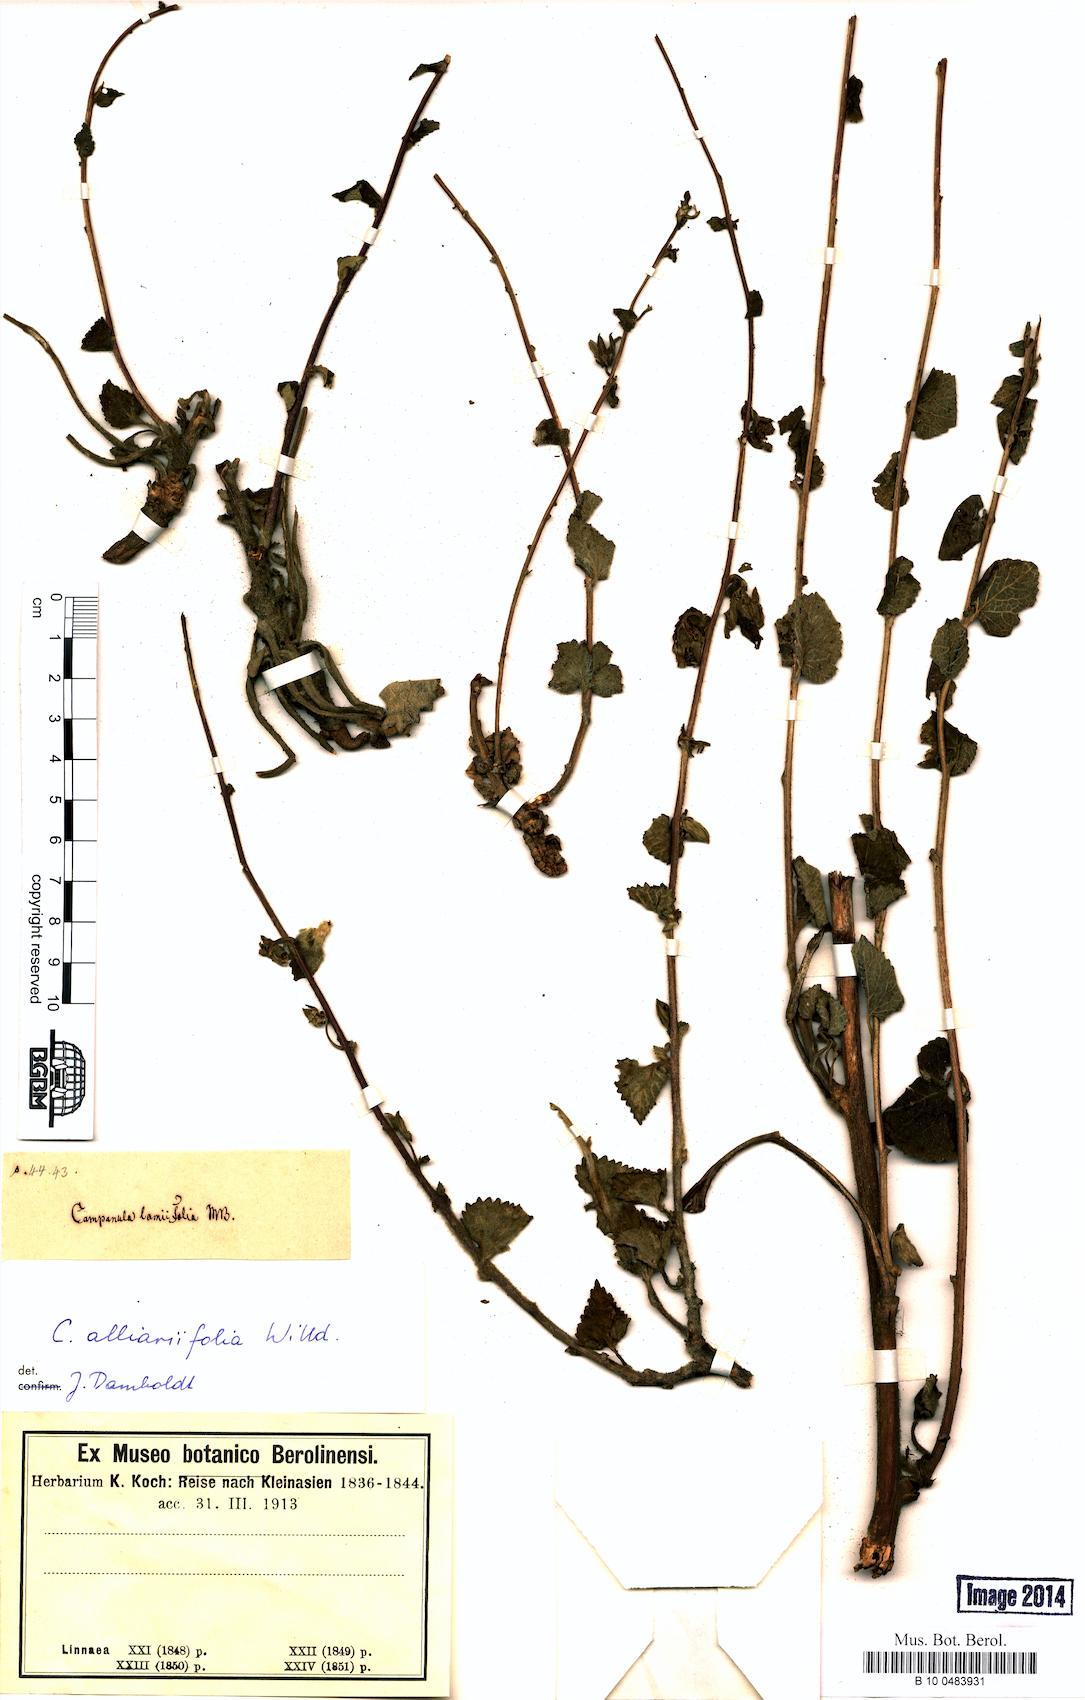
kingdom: Plantae
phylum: Tracheophyta
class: Magnoliopsida
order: Asterales
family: Campanulaceae
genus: Campanula
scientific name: Campanula alliariifolia
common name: Cornish bellflower
